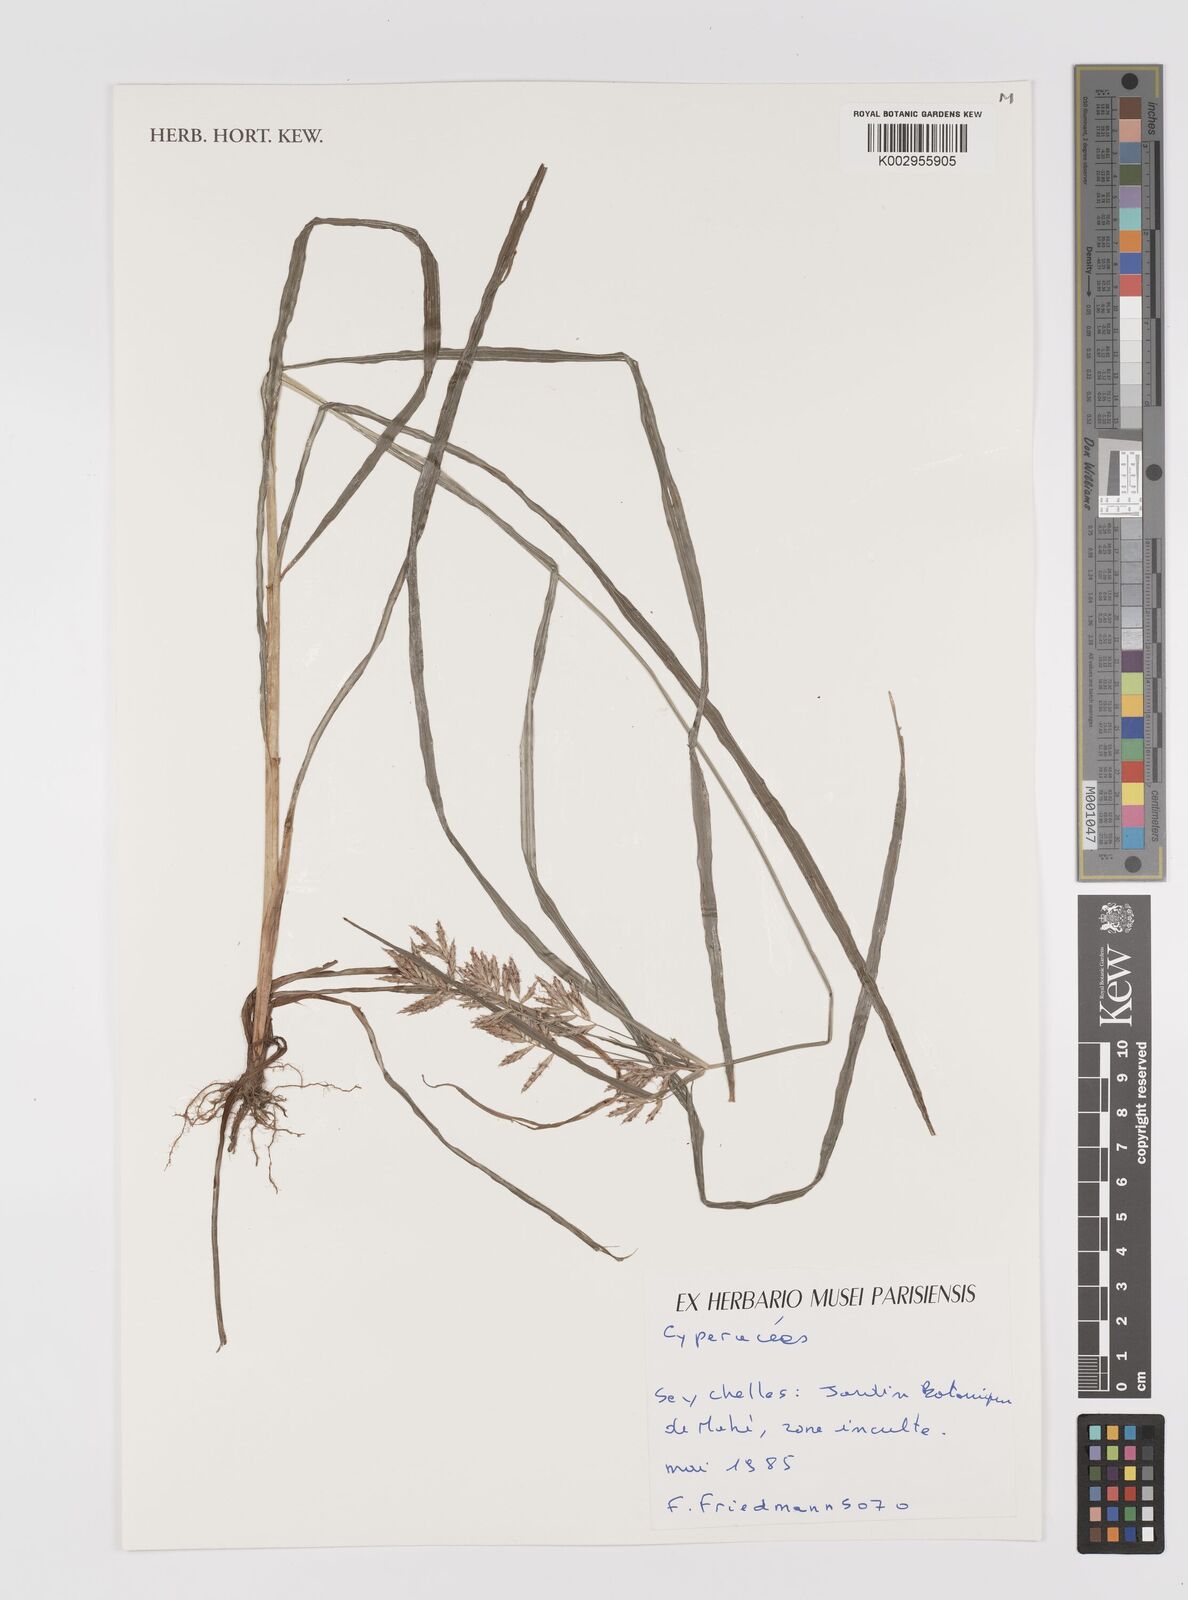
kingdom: Plantae
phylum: Tracheophyta
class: Liliopsida
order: Poales
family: Cyperaceae
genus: Cyperus
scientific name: Cyperus
